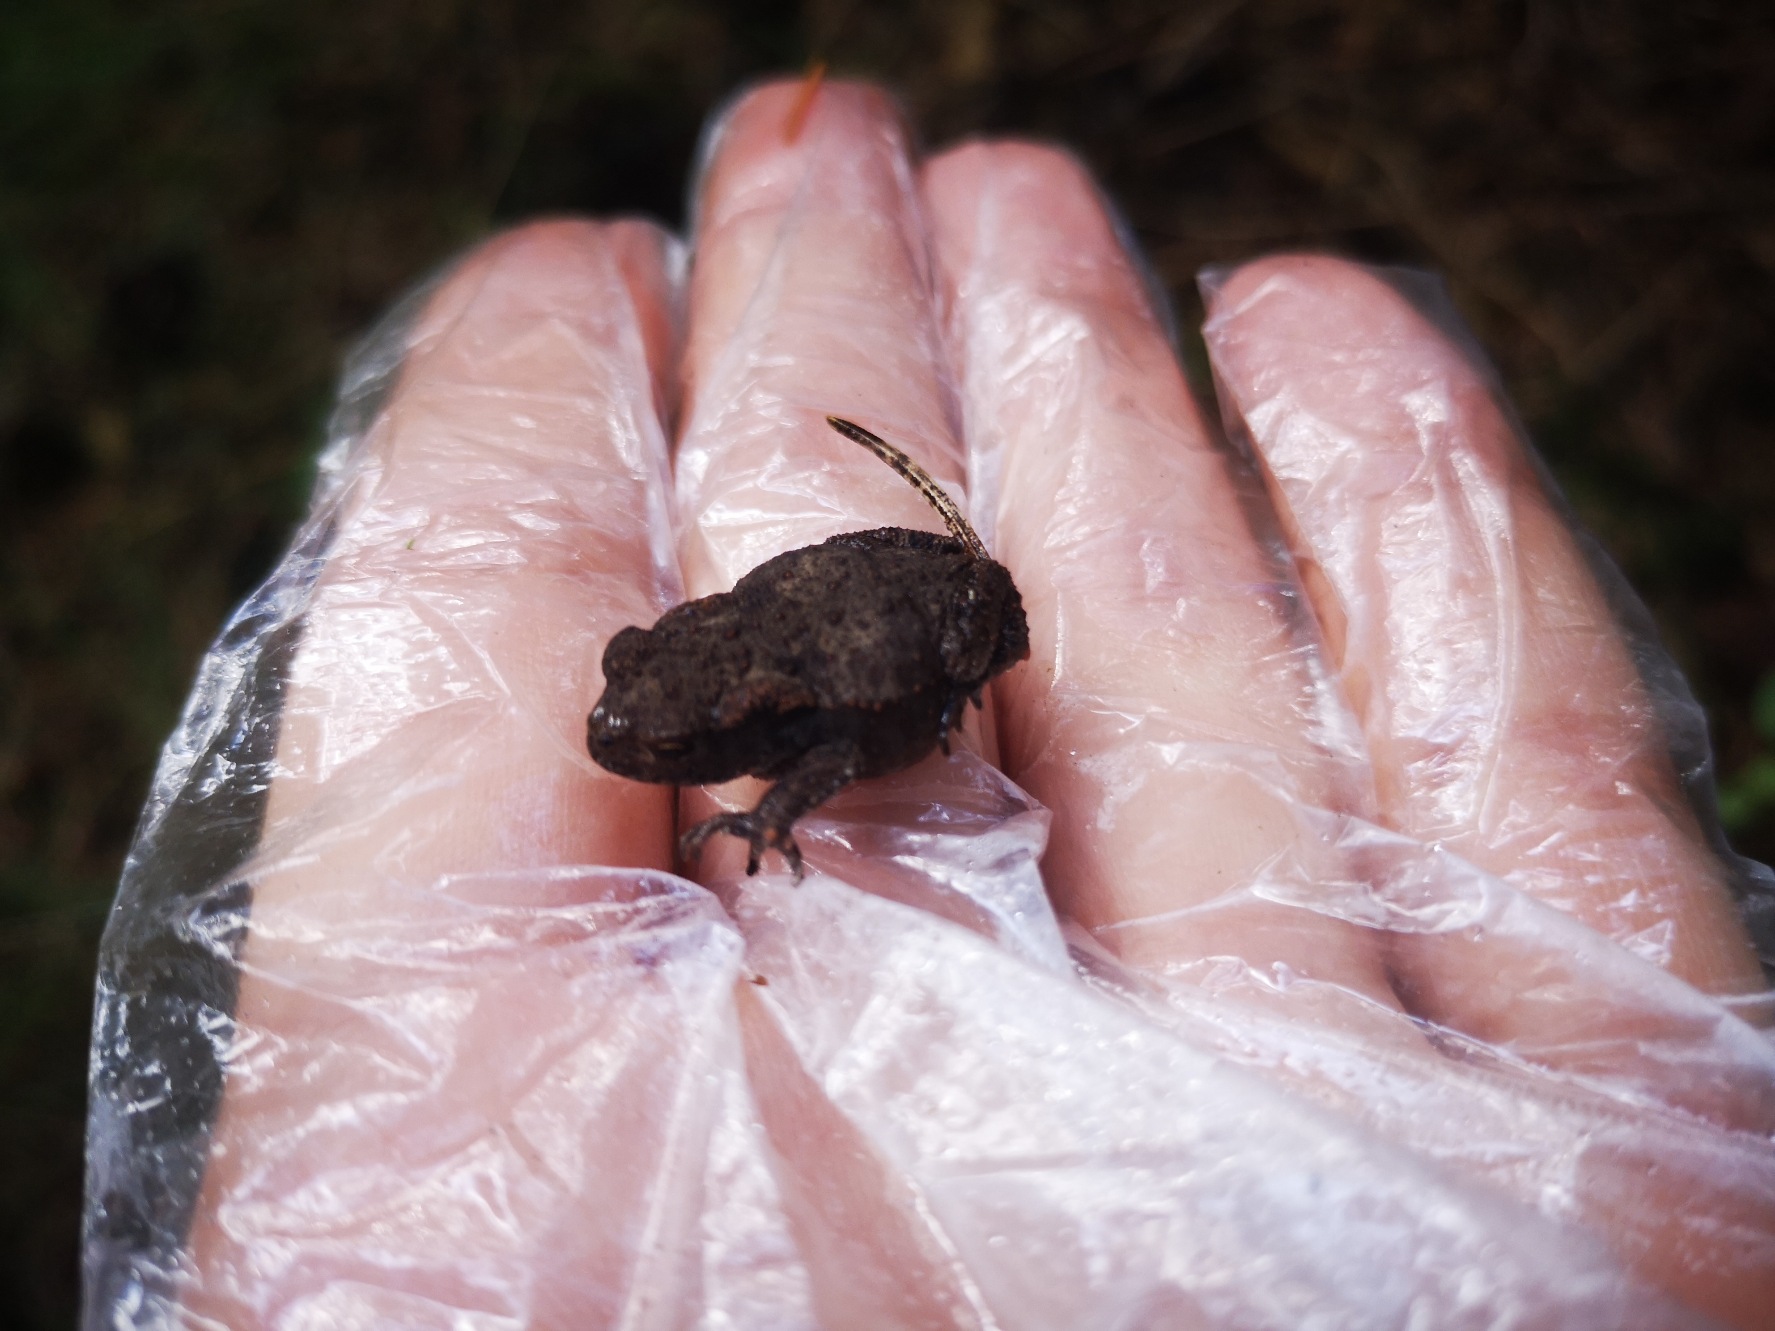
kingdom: Animalia
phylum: Chordata
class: Amphibia
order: Anura
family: Bufonidae
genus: Bufo
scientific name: Bufo bufo
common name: Skrubtudse
